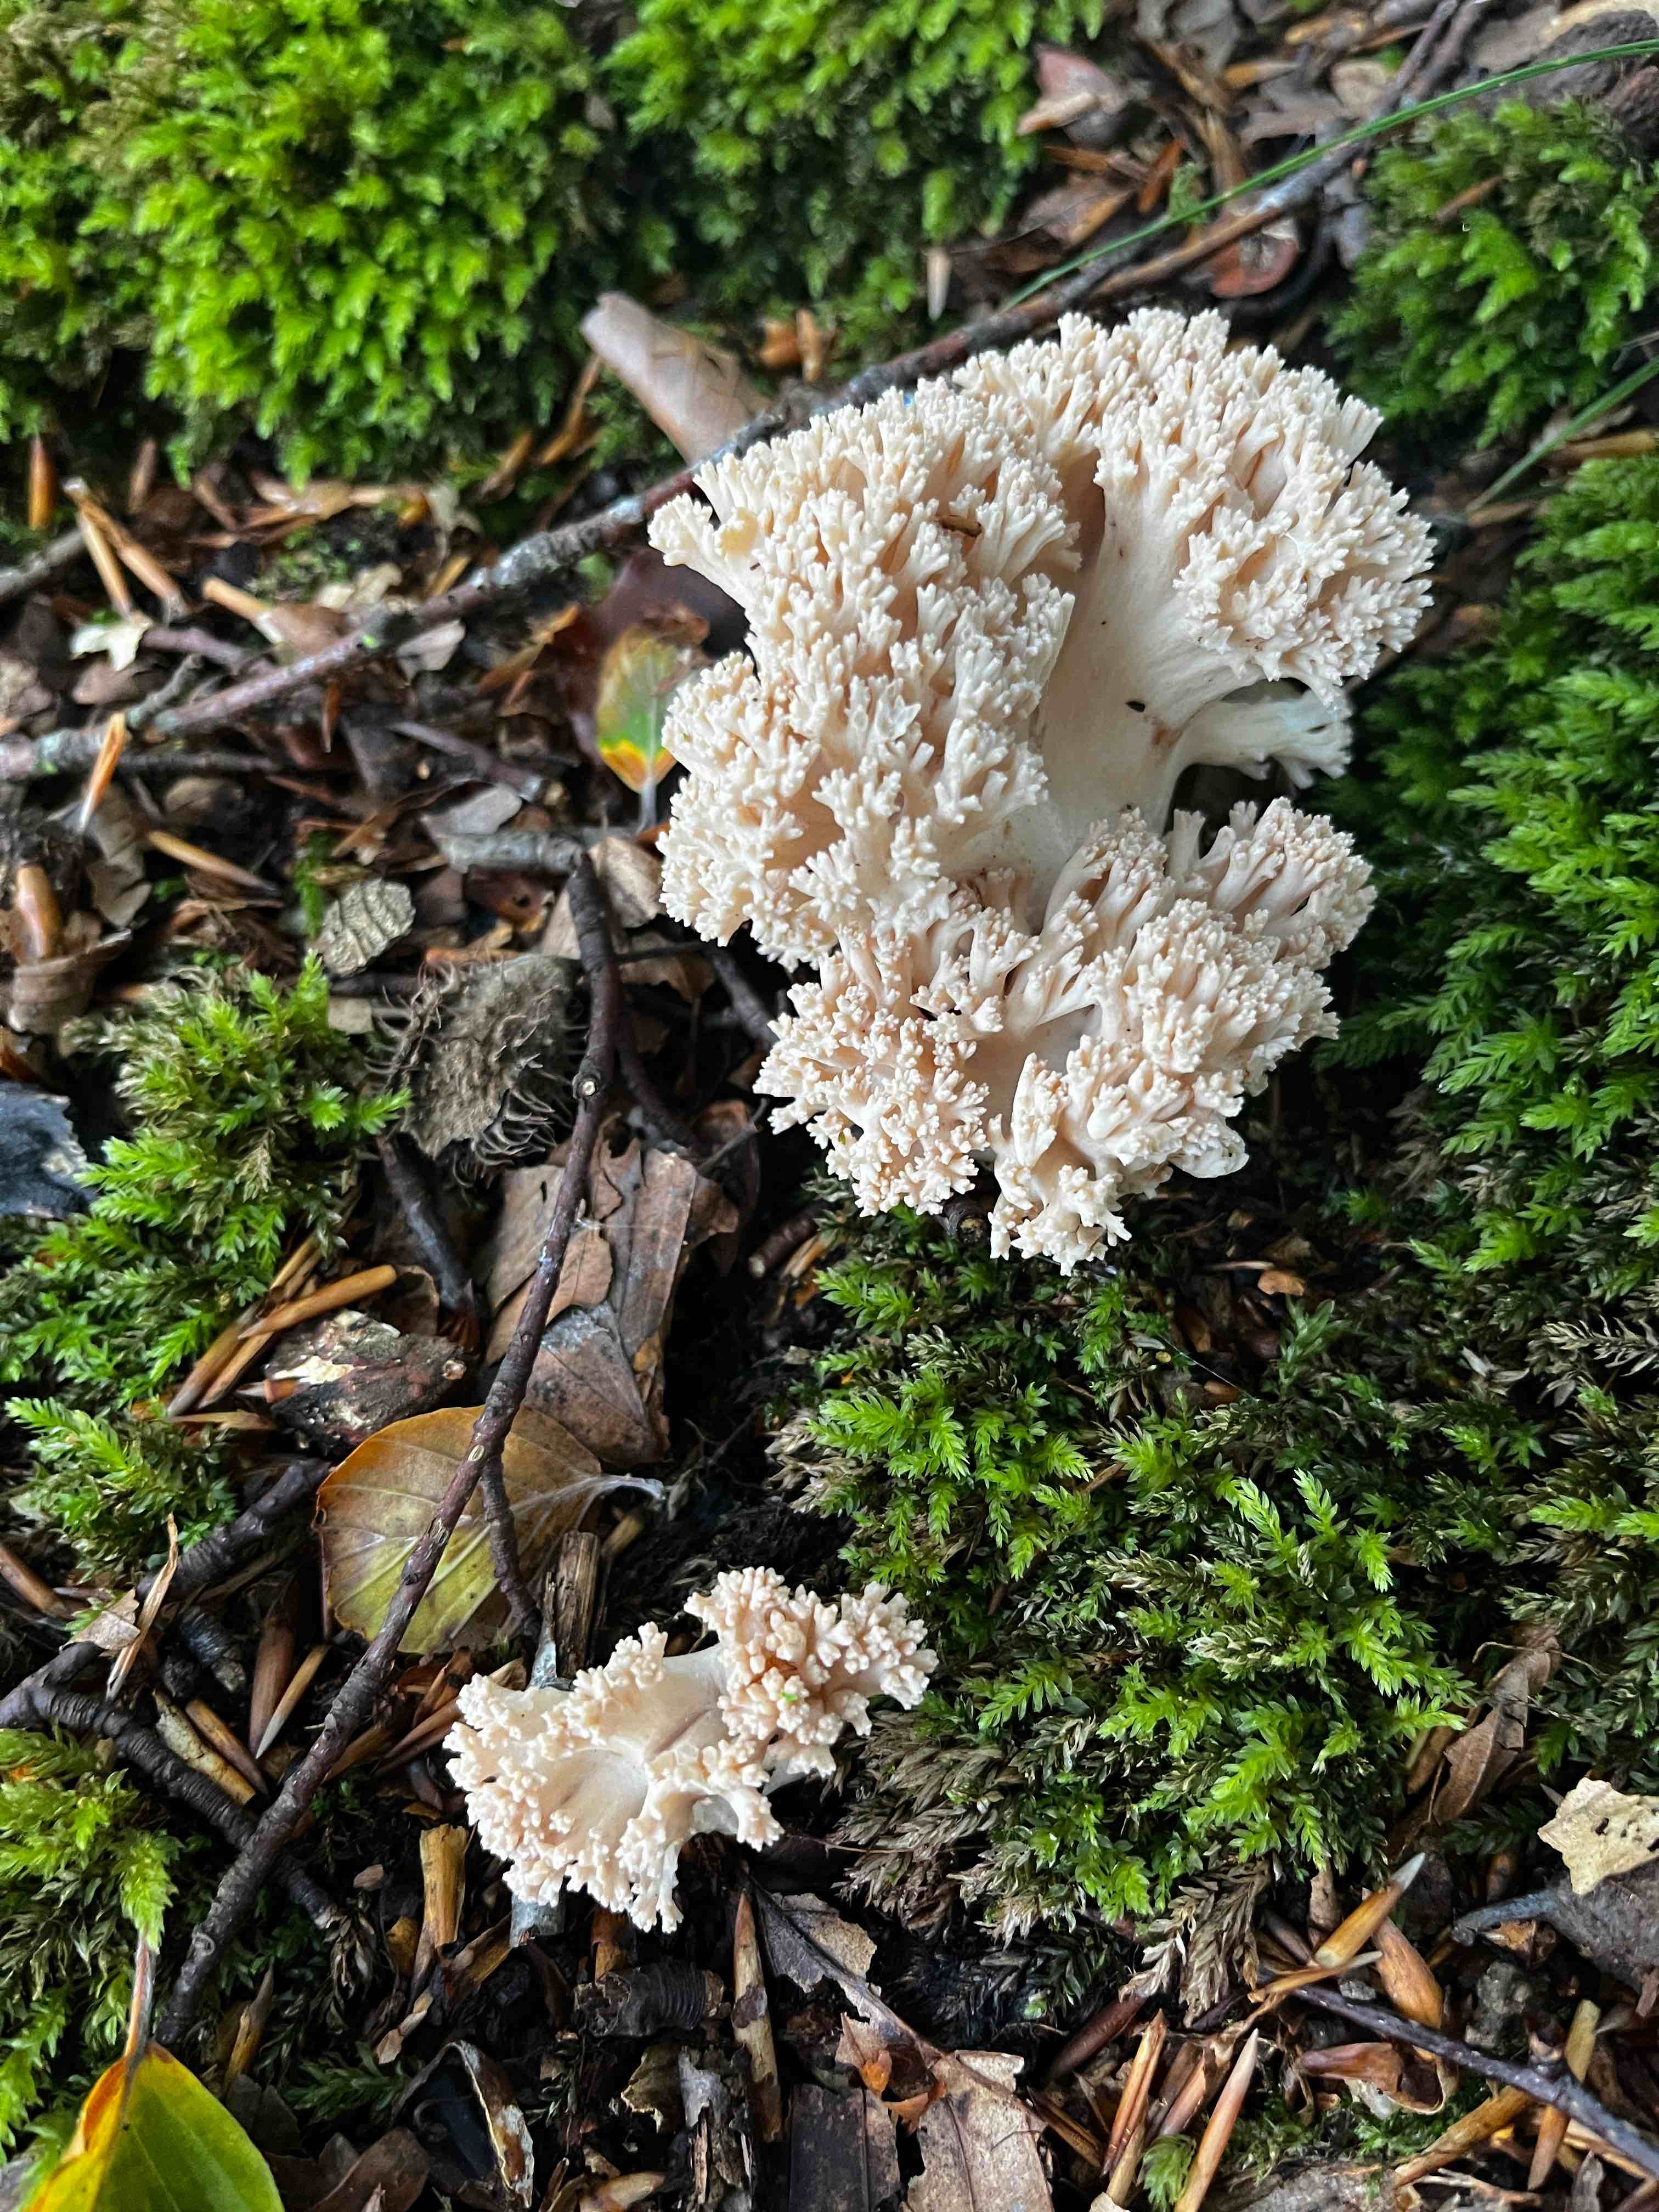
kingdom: Fungi
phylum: Basidiomycota
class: Agaricomycetes
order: Gomphales
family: Gomphaceae
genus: Ramaria
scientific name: Ramaria
